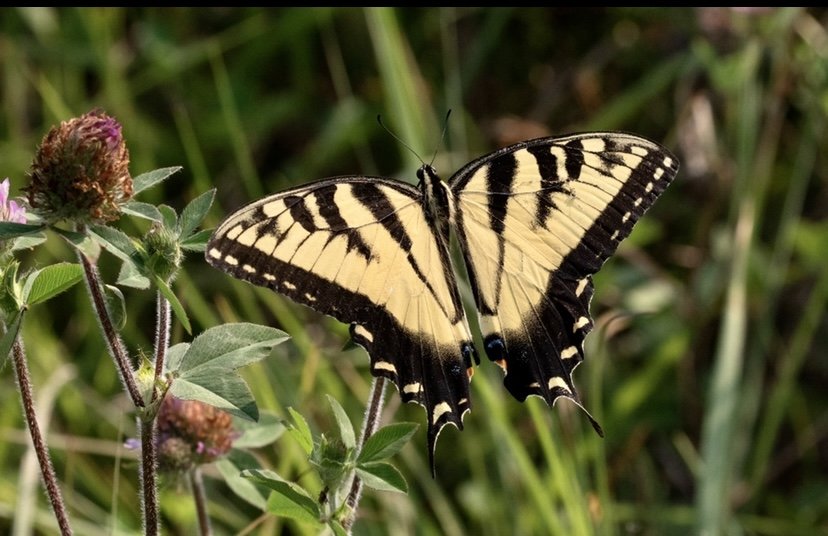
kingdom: Animalia
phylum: Arthropoda
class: Insecta
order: Lepidoptera
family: Papilionidae
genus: Pterourus
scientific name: Pterourus glaucus
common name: Eastern Tiger Swallowtail
